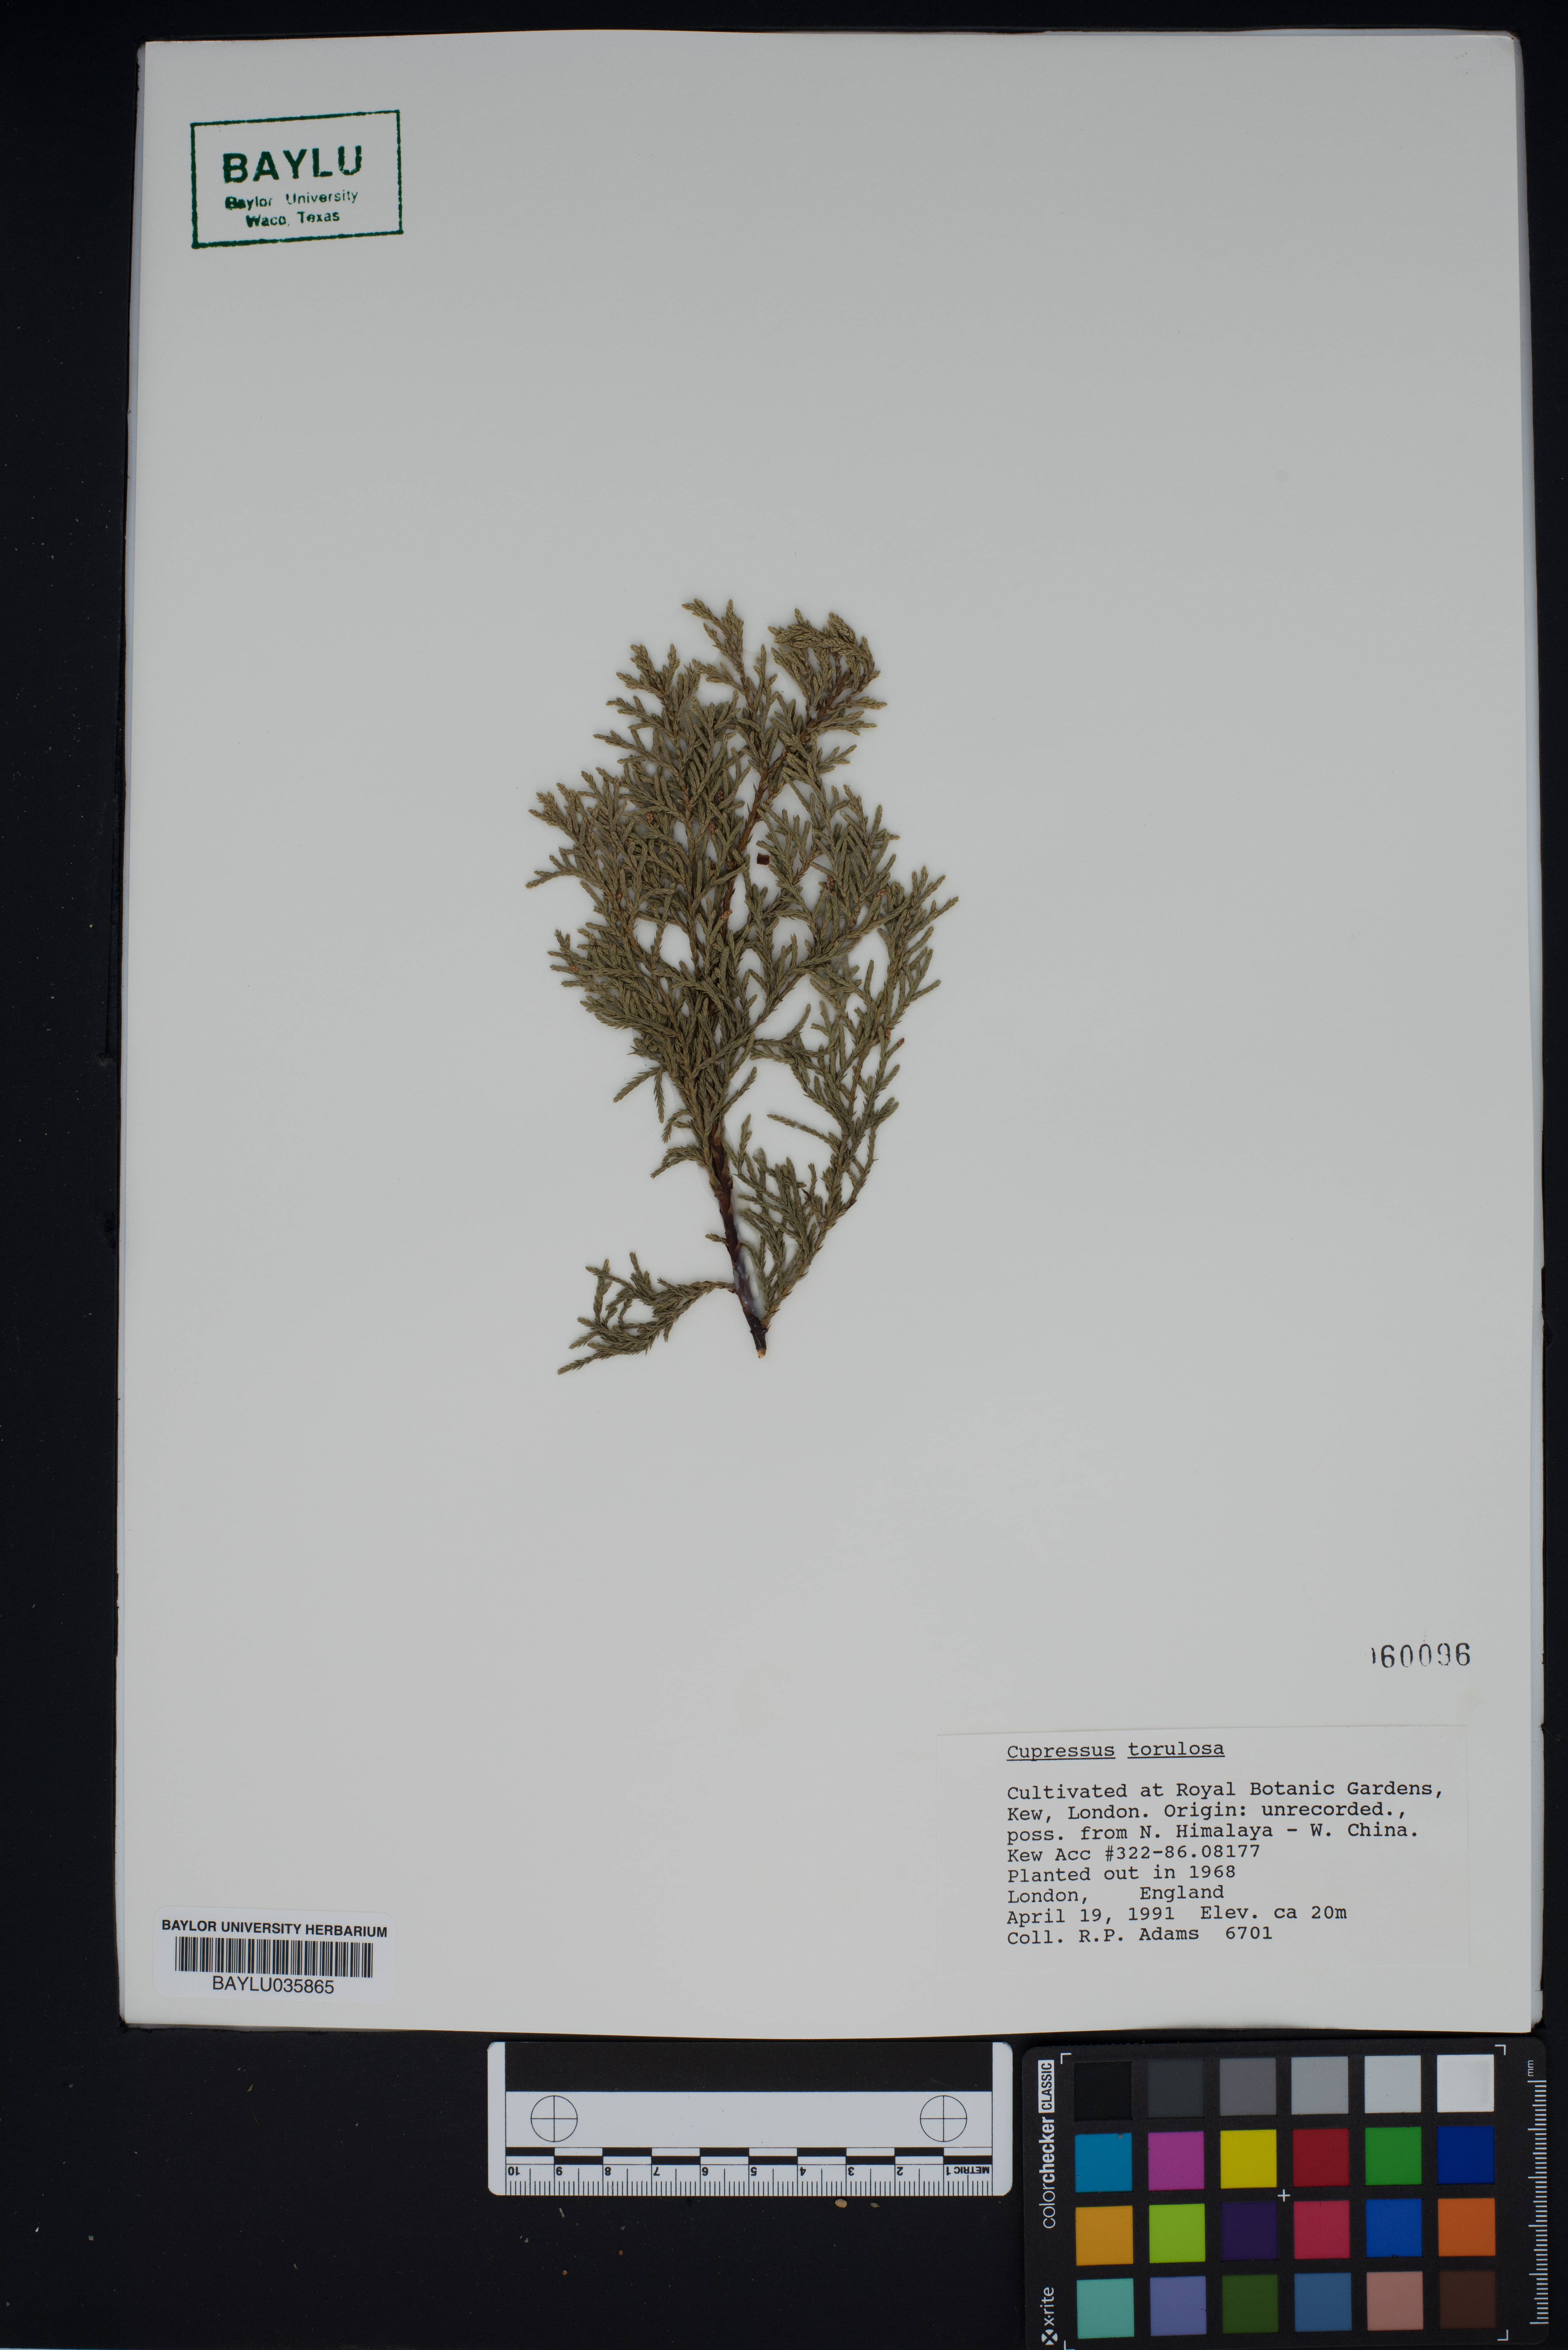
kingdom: Plantae
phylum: Tracheophyta
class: Pinopsida
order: Pinales
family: Cupressaceae
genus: Cupressus
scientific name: Cupressus torulosa
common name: Himalayan cypress
